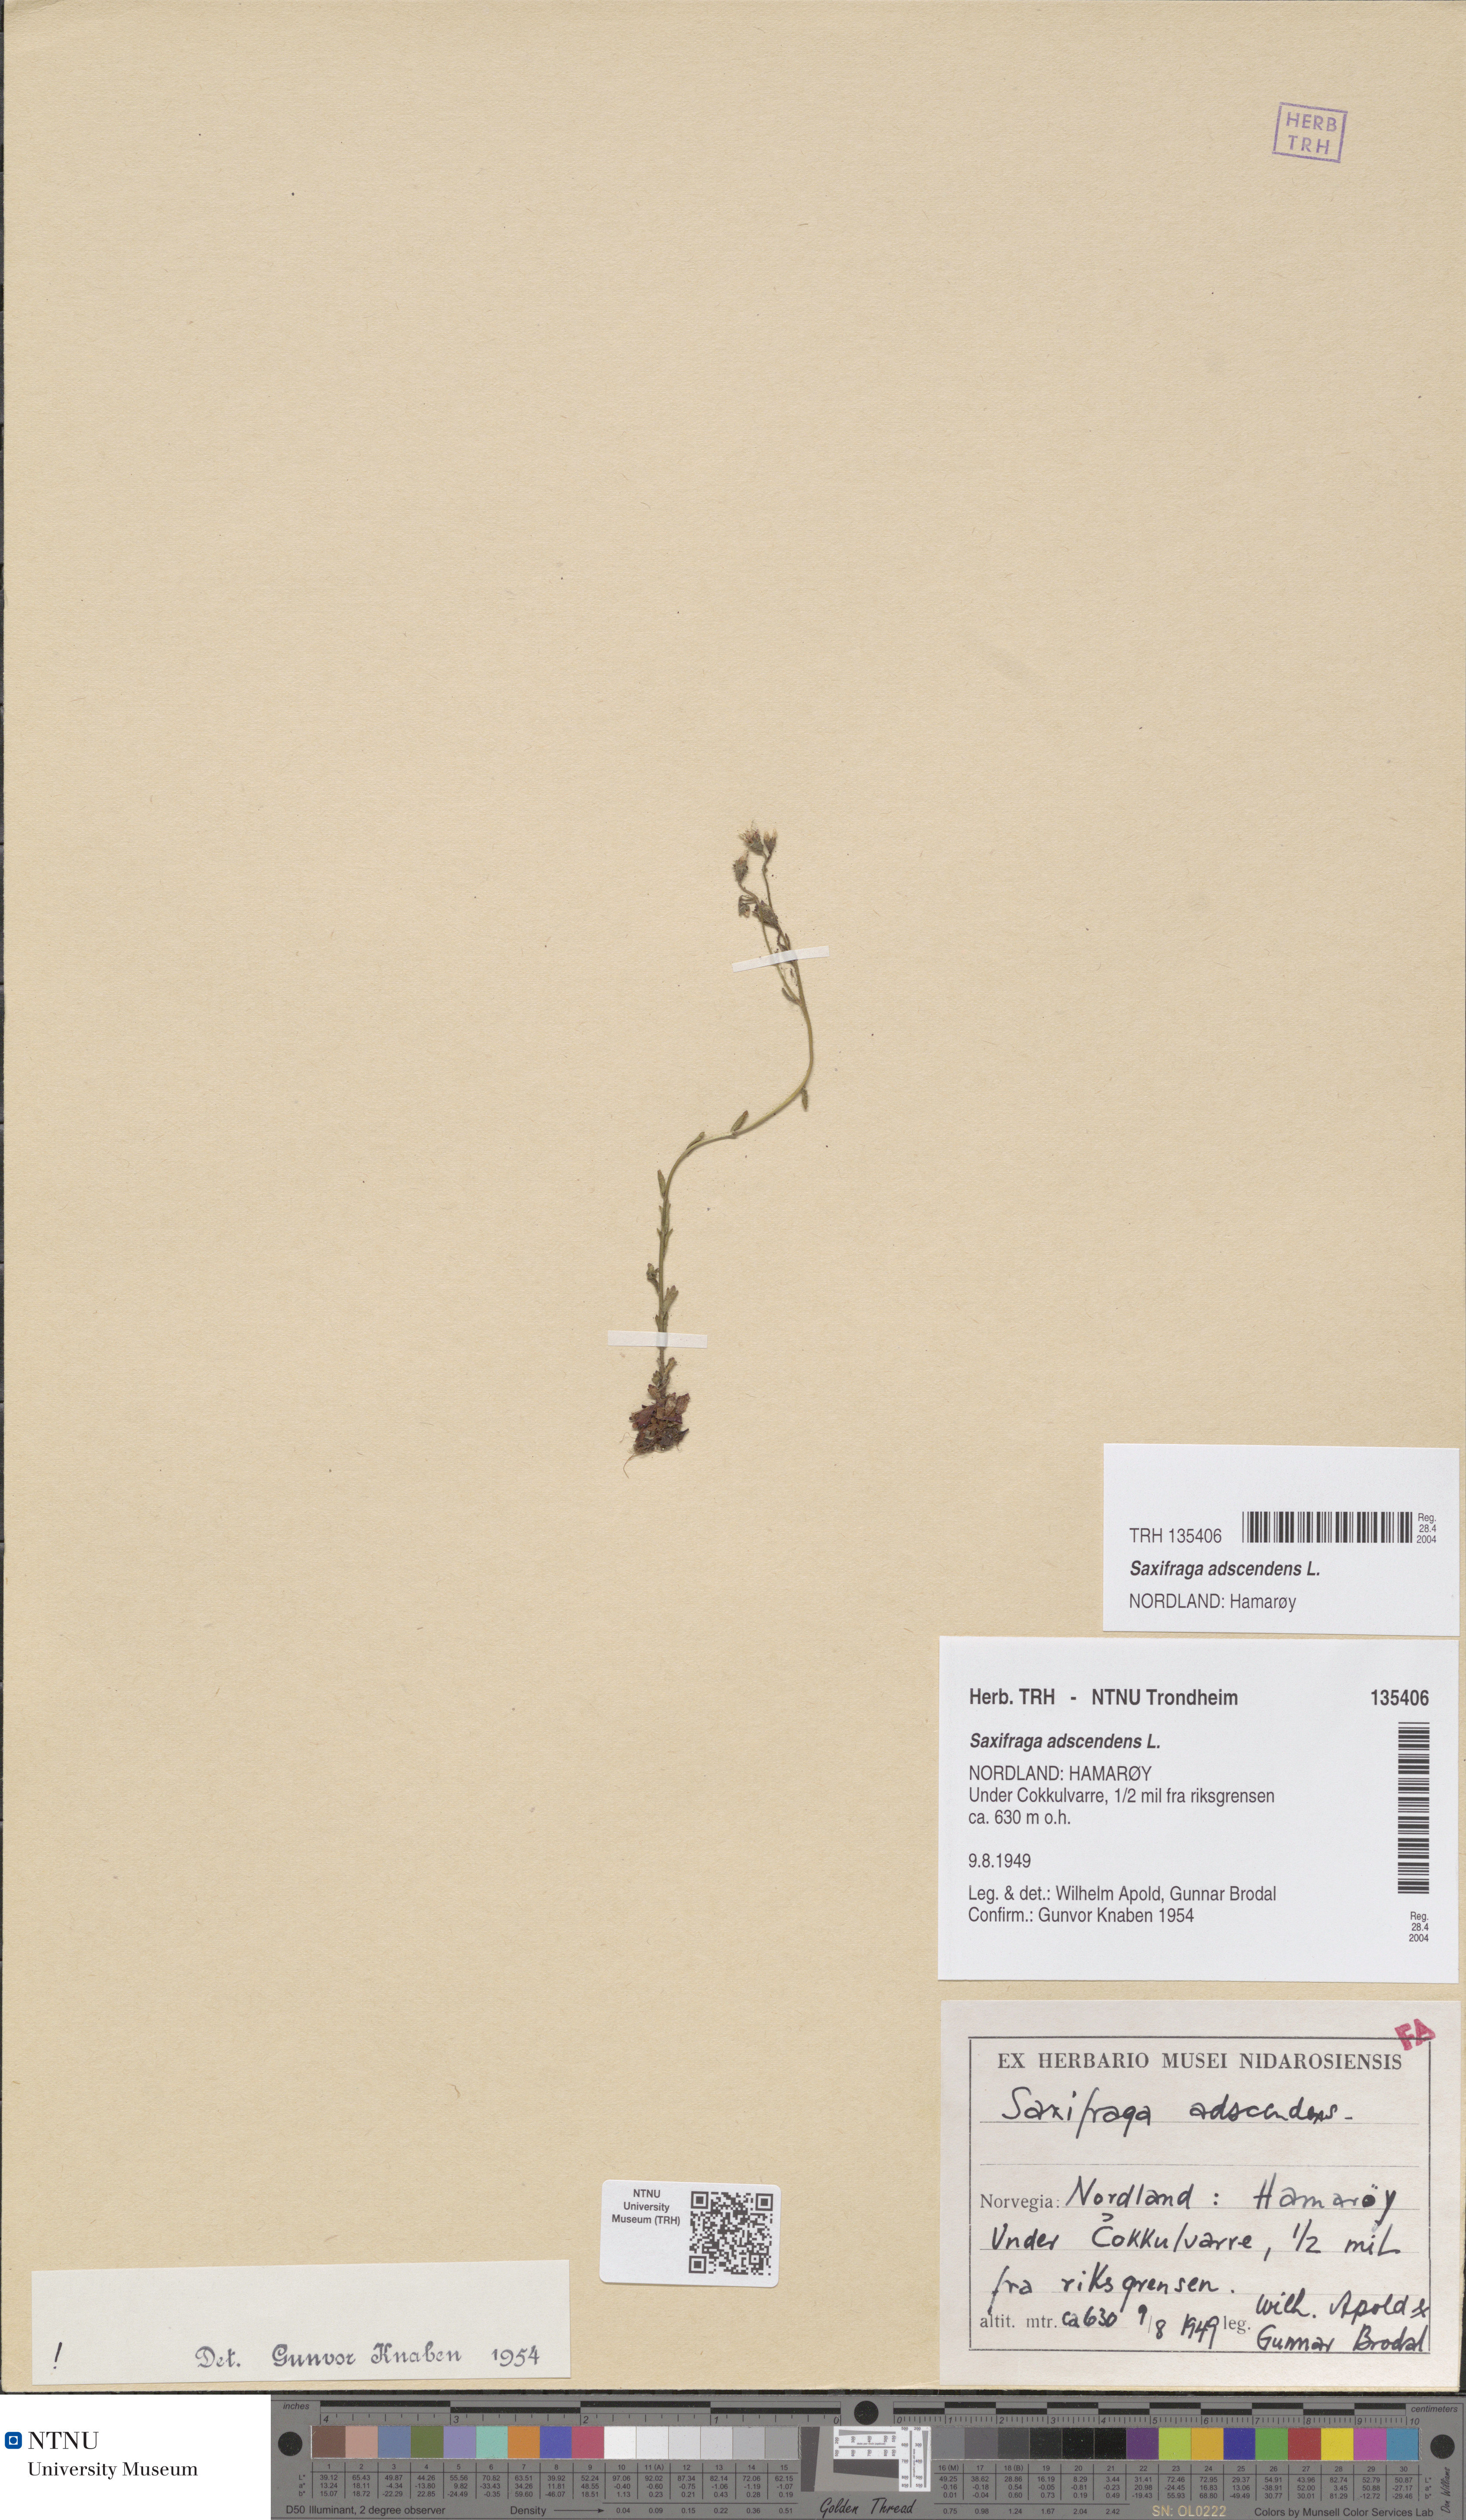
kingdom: Plantae
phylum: Tracheophyta
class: Magnoliopsida
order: Saxifragales
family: Saxifragaceae
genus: Saxifraga
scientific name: Saxifraga adscendens
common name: Ascending saxifrage
